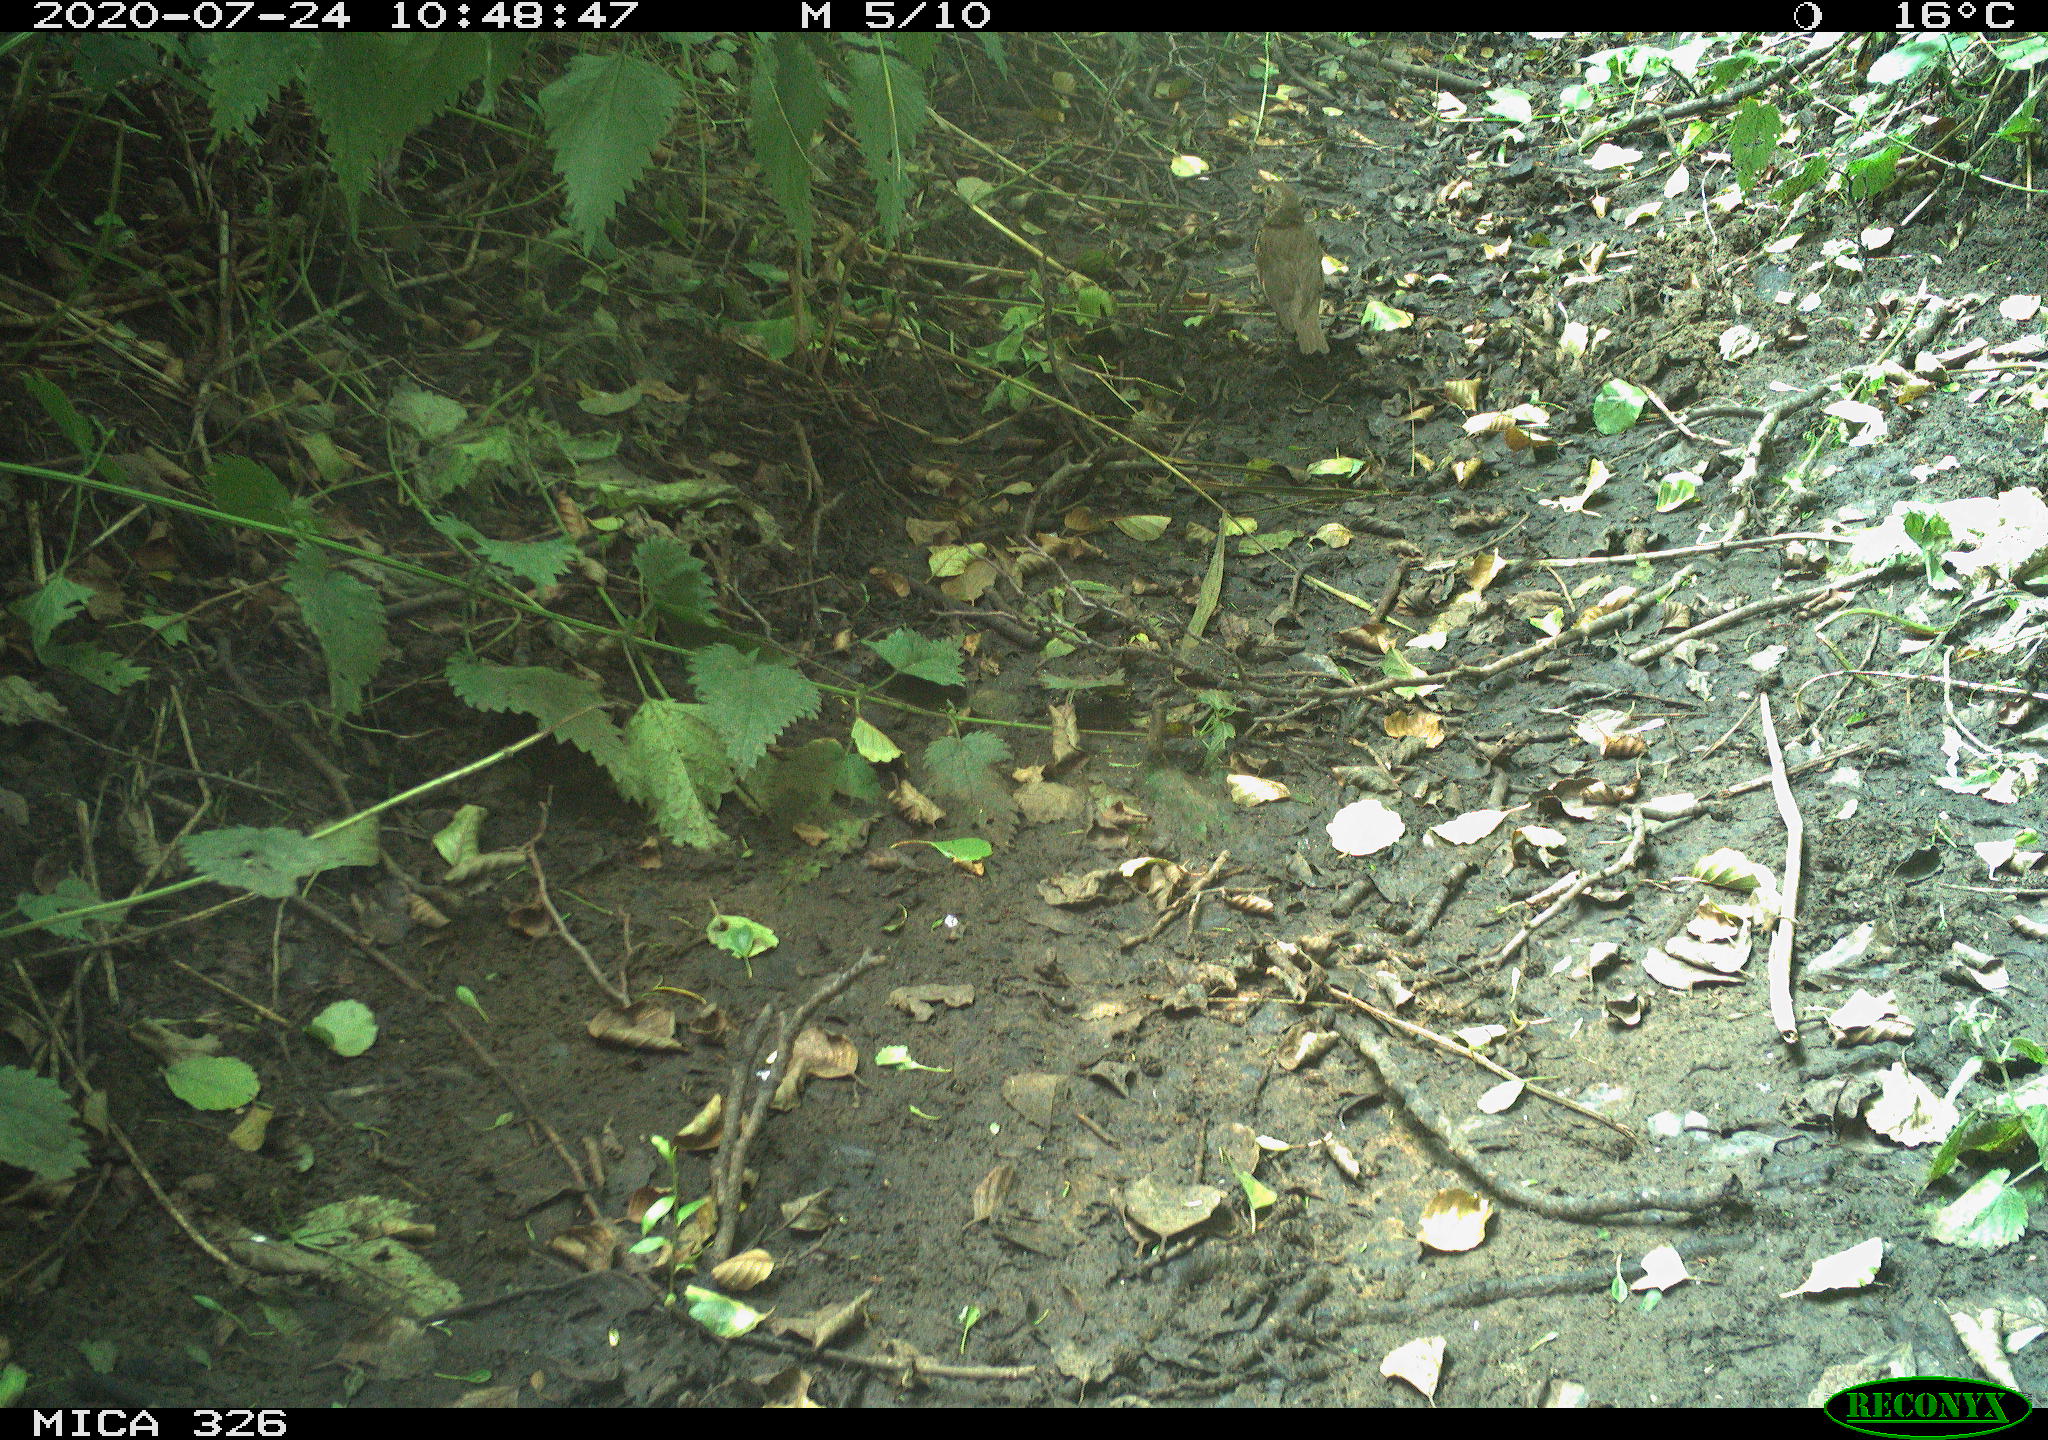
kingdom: Animalia
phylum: Chordata
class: Aves
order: Passeriformes
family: Turdidae
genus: Turdus
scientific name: Turdus philomelos
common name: Song thrush
